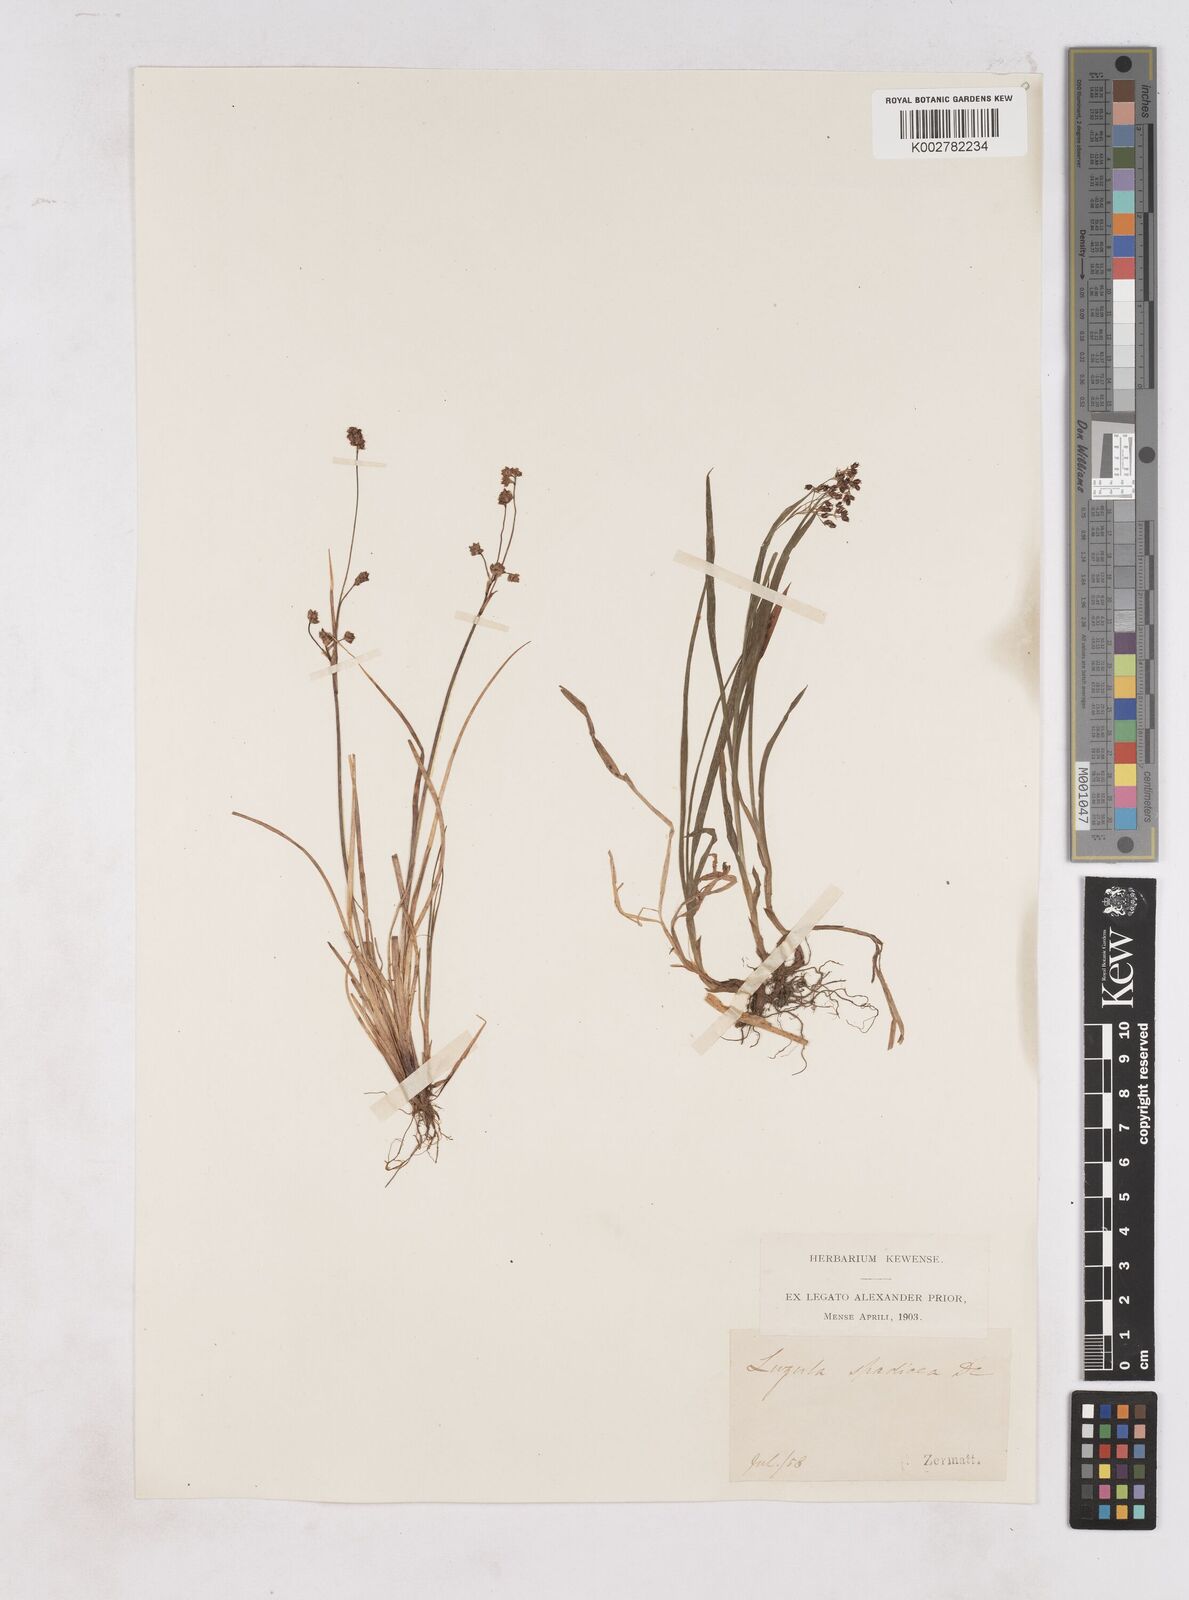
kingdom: Plantae
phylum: Tracheophyta
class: Liliopsida
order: Poales
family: Juncaceae
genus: Luzula
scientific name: Luzula alpinopilosa
